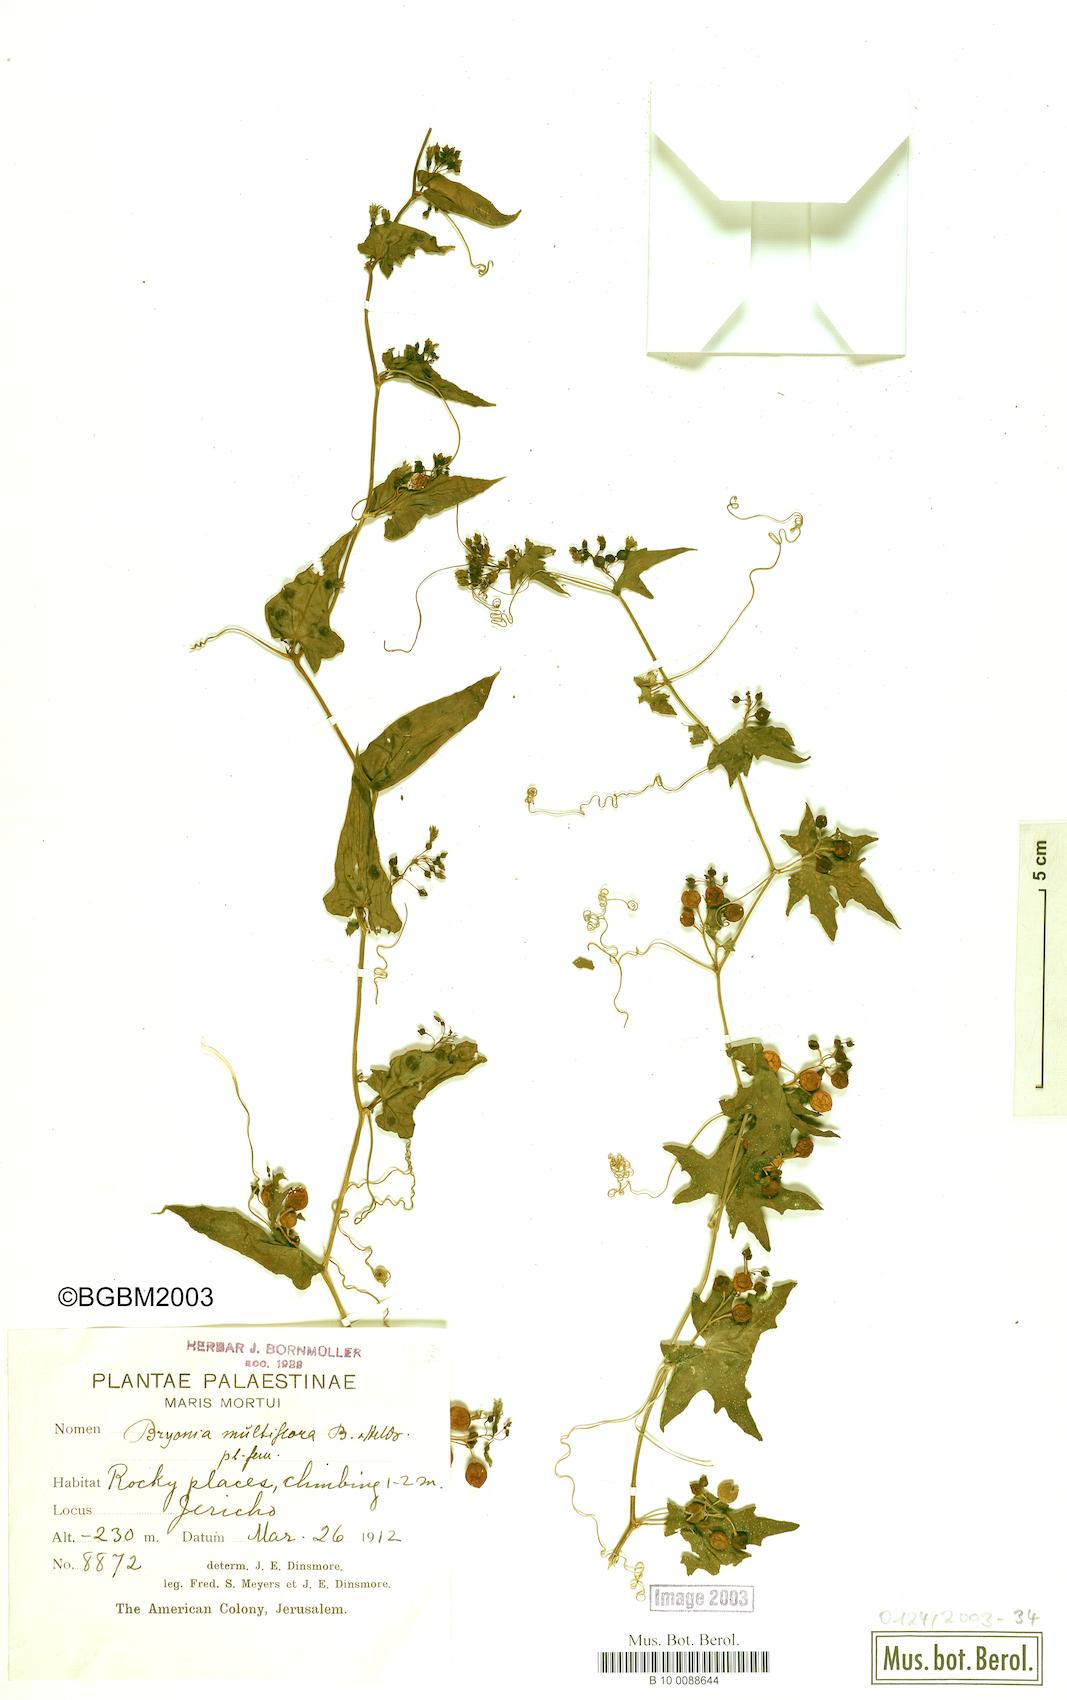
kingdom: Plantae
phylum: Tracheophyta
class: Magnoliopsida
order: Cucurbitales
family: Cucurbitaceae
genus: Bryonia
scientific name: Bryonia multiflora
